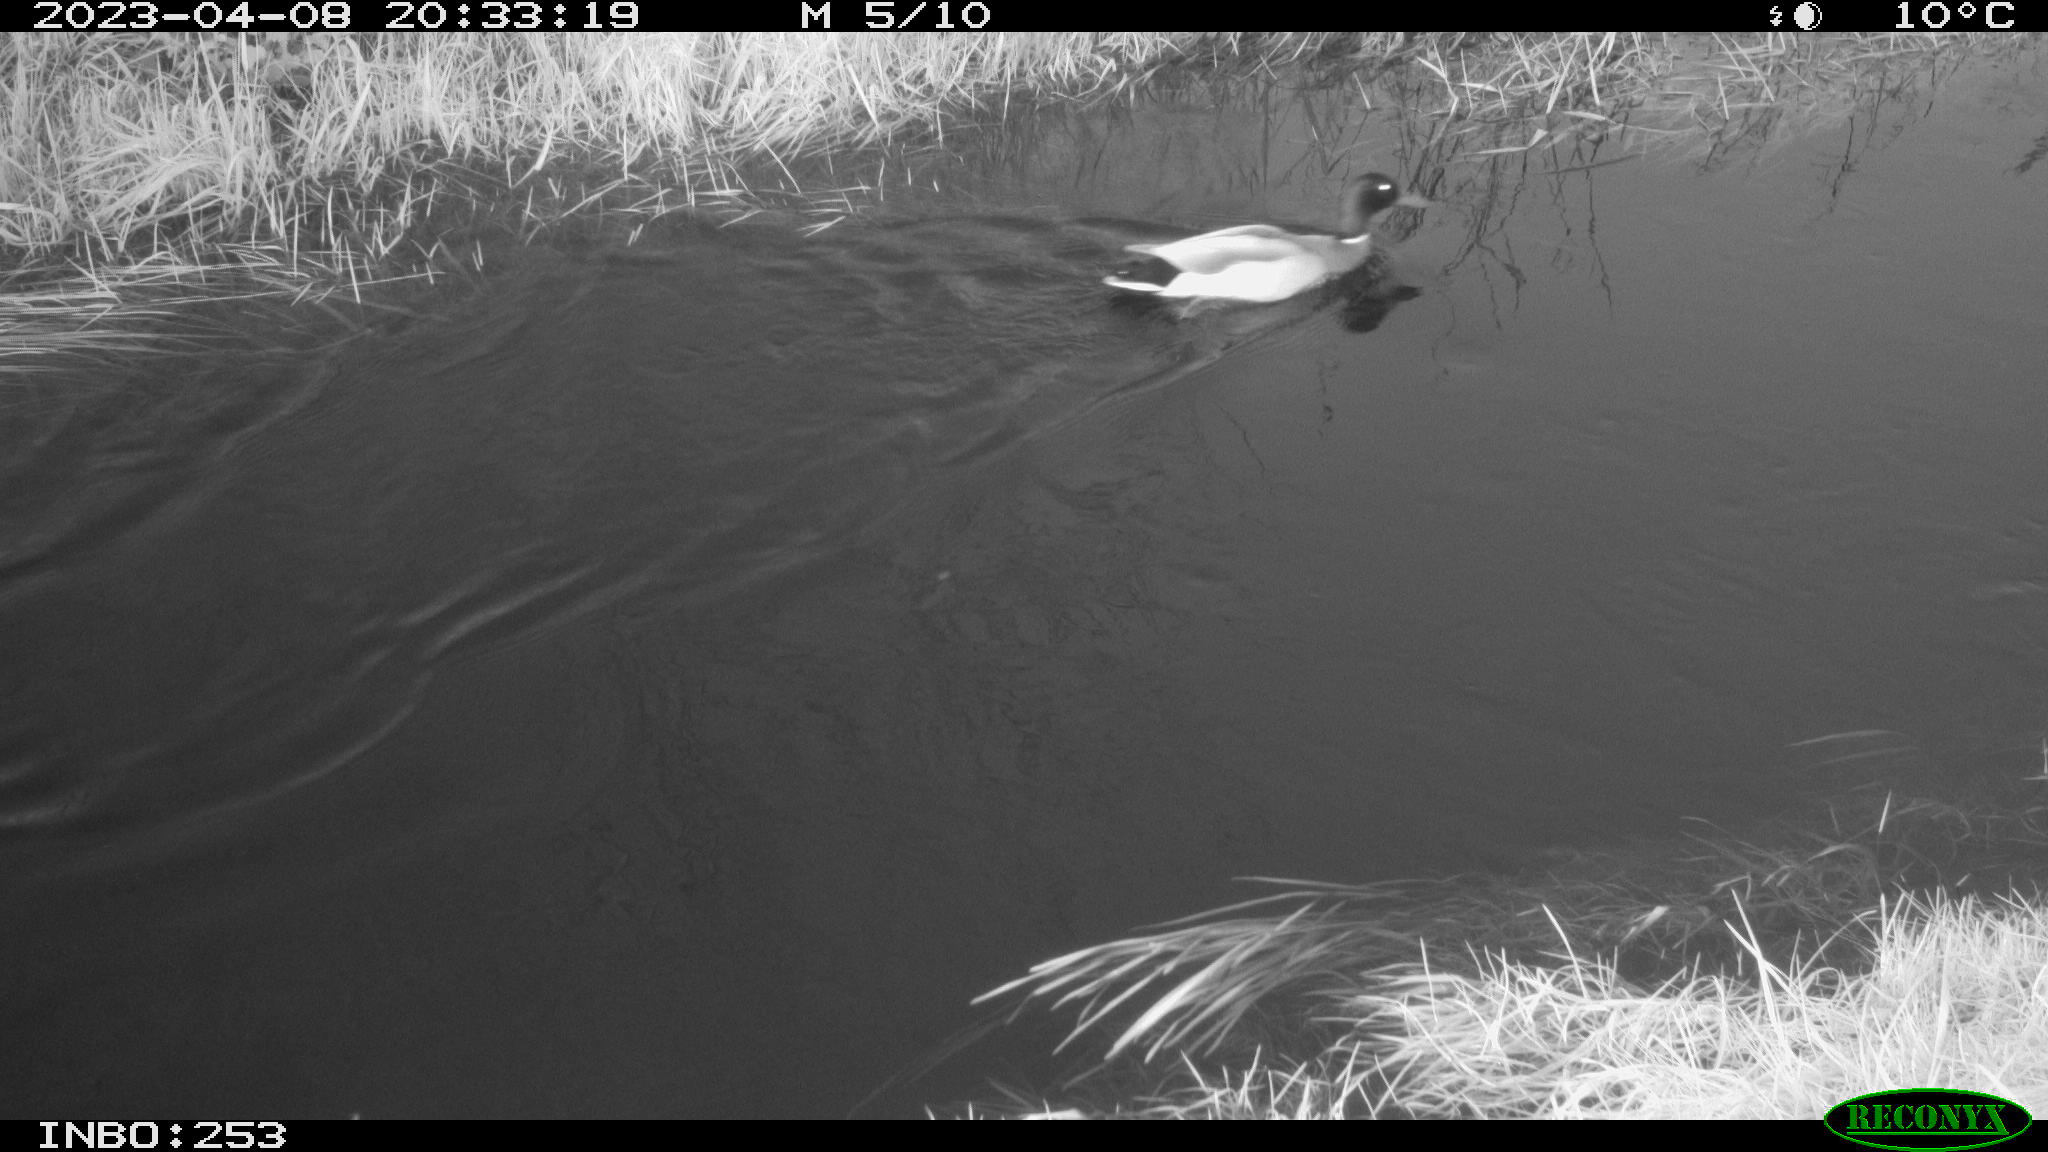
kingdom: Animalia
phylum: Chordata
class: Aves
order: Anseriformes
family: Anatidae
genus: Anas
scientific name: Anas
